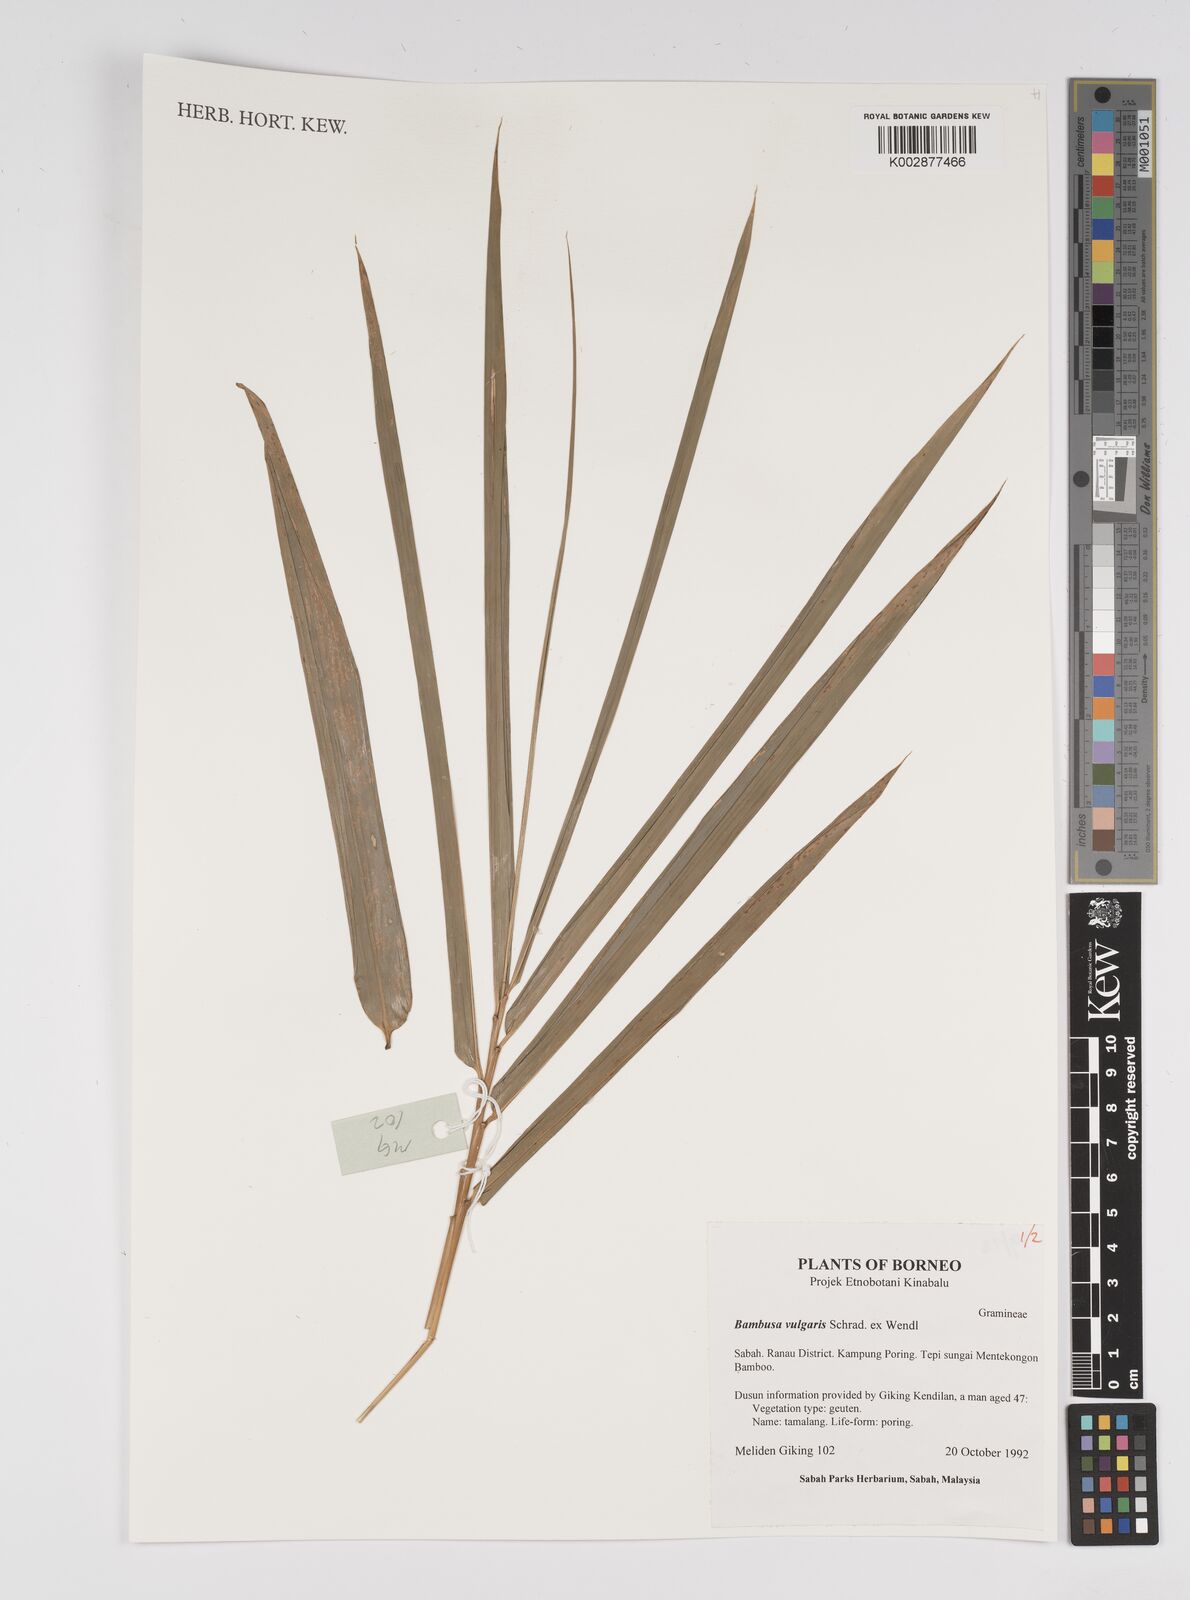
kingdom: Plantae
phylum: Tracheophyta
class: Liliopsida
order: Poales
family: Poaceae
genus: Bambusa
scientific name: Bambusa vulgaris
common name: Common bamboo
